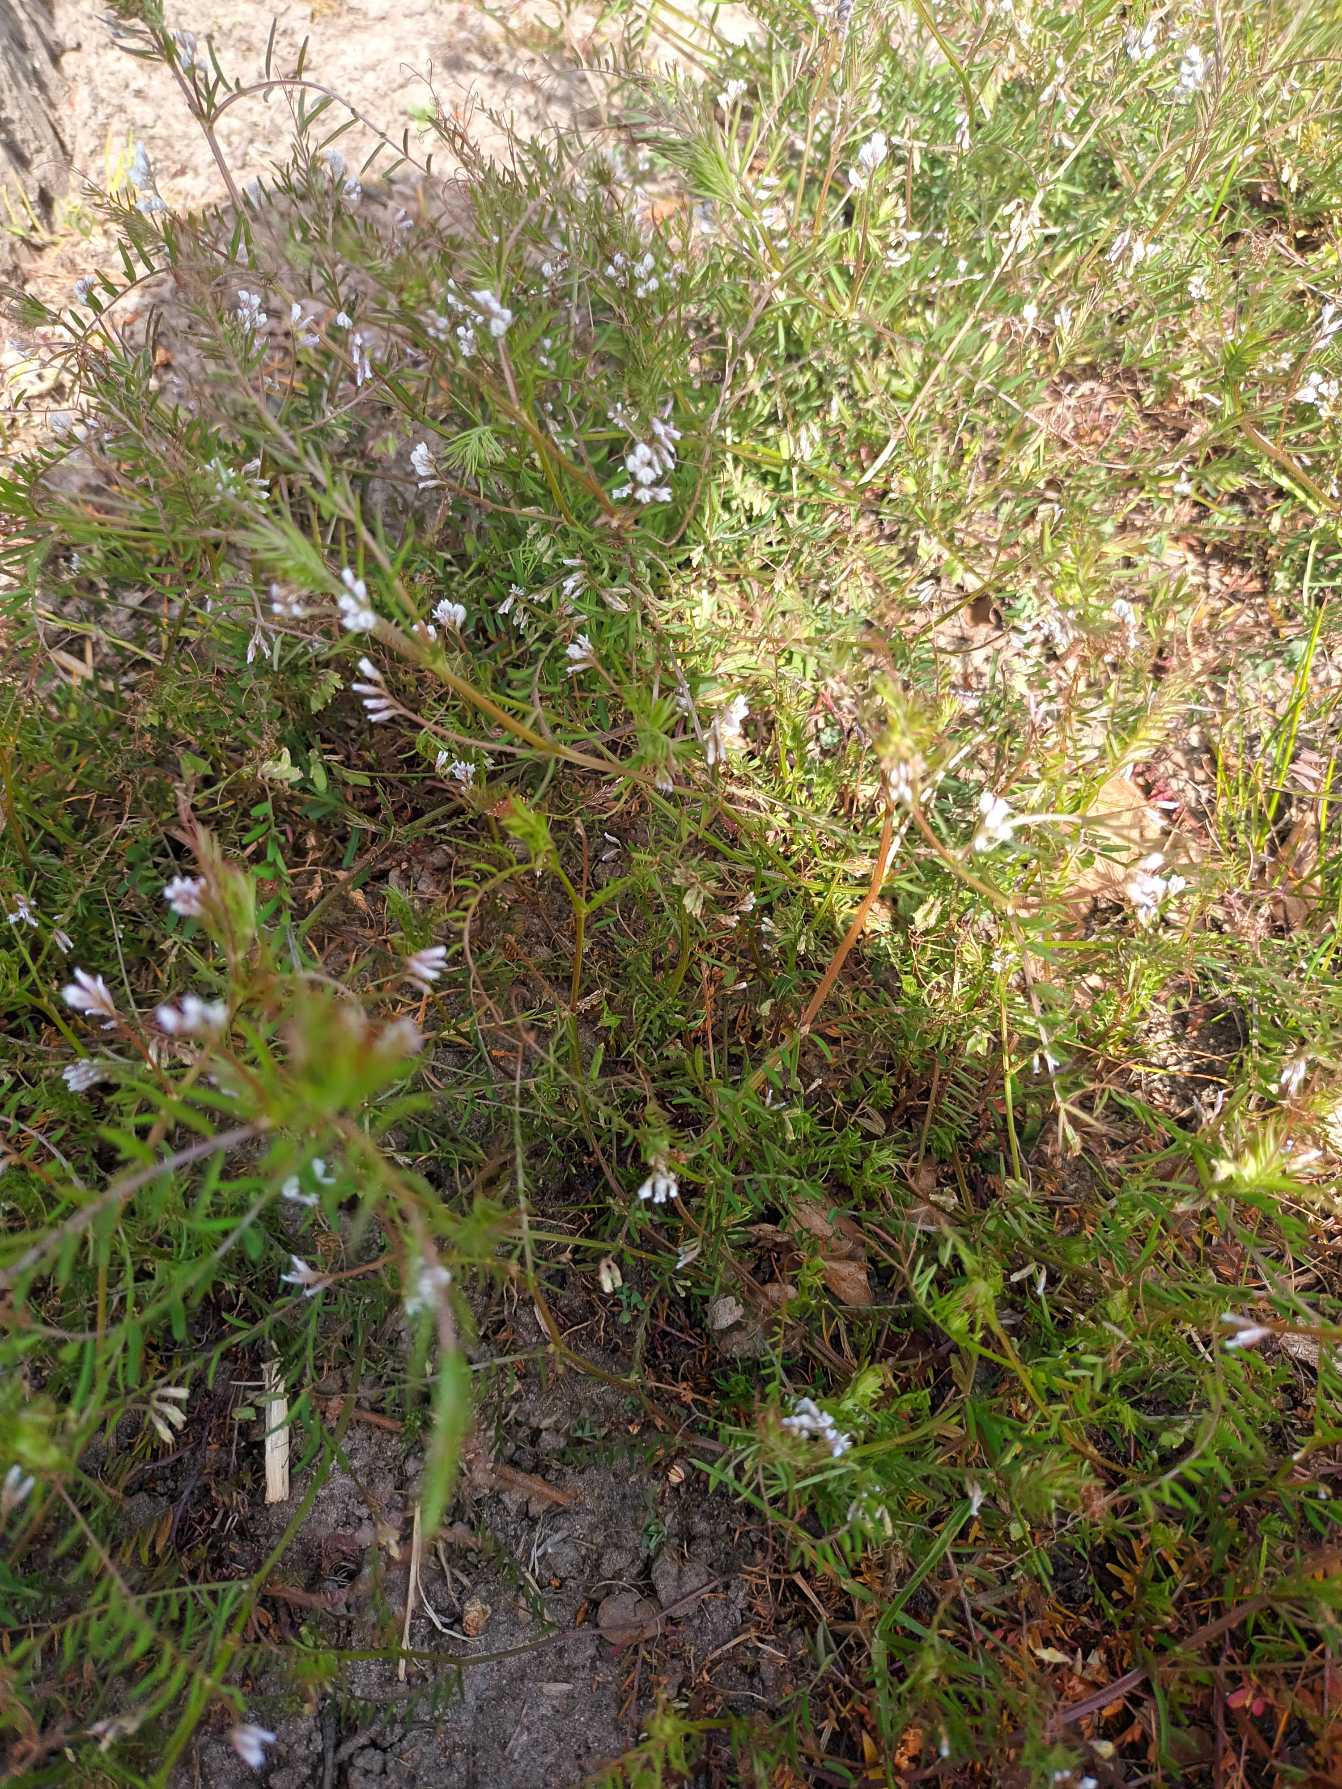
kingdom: Plantae
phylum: Tracheophyta
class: Magnoliopsida
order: Fabales
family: Fabaceae
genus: Vicia
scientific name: Vicia hirsuta
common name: Tofrøet vikke
